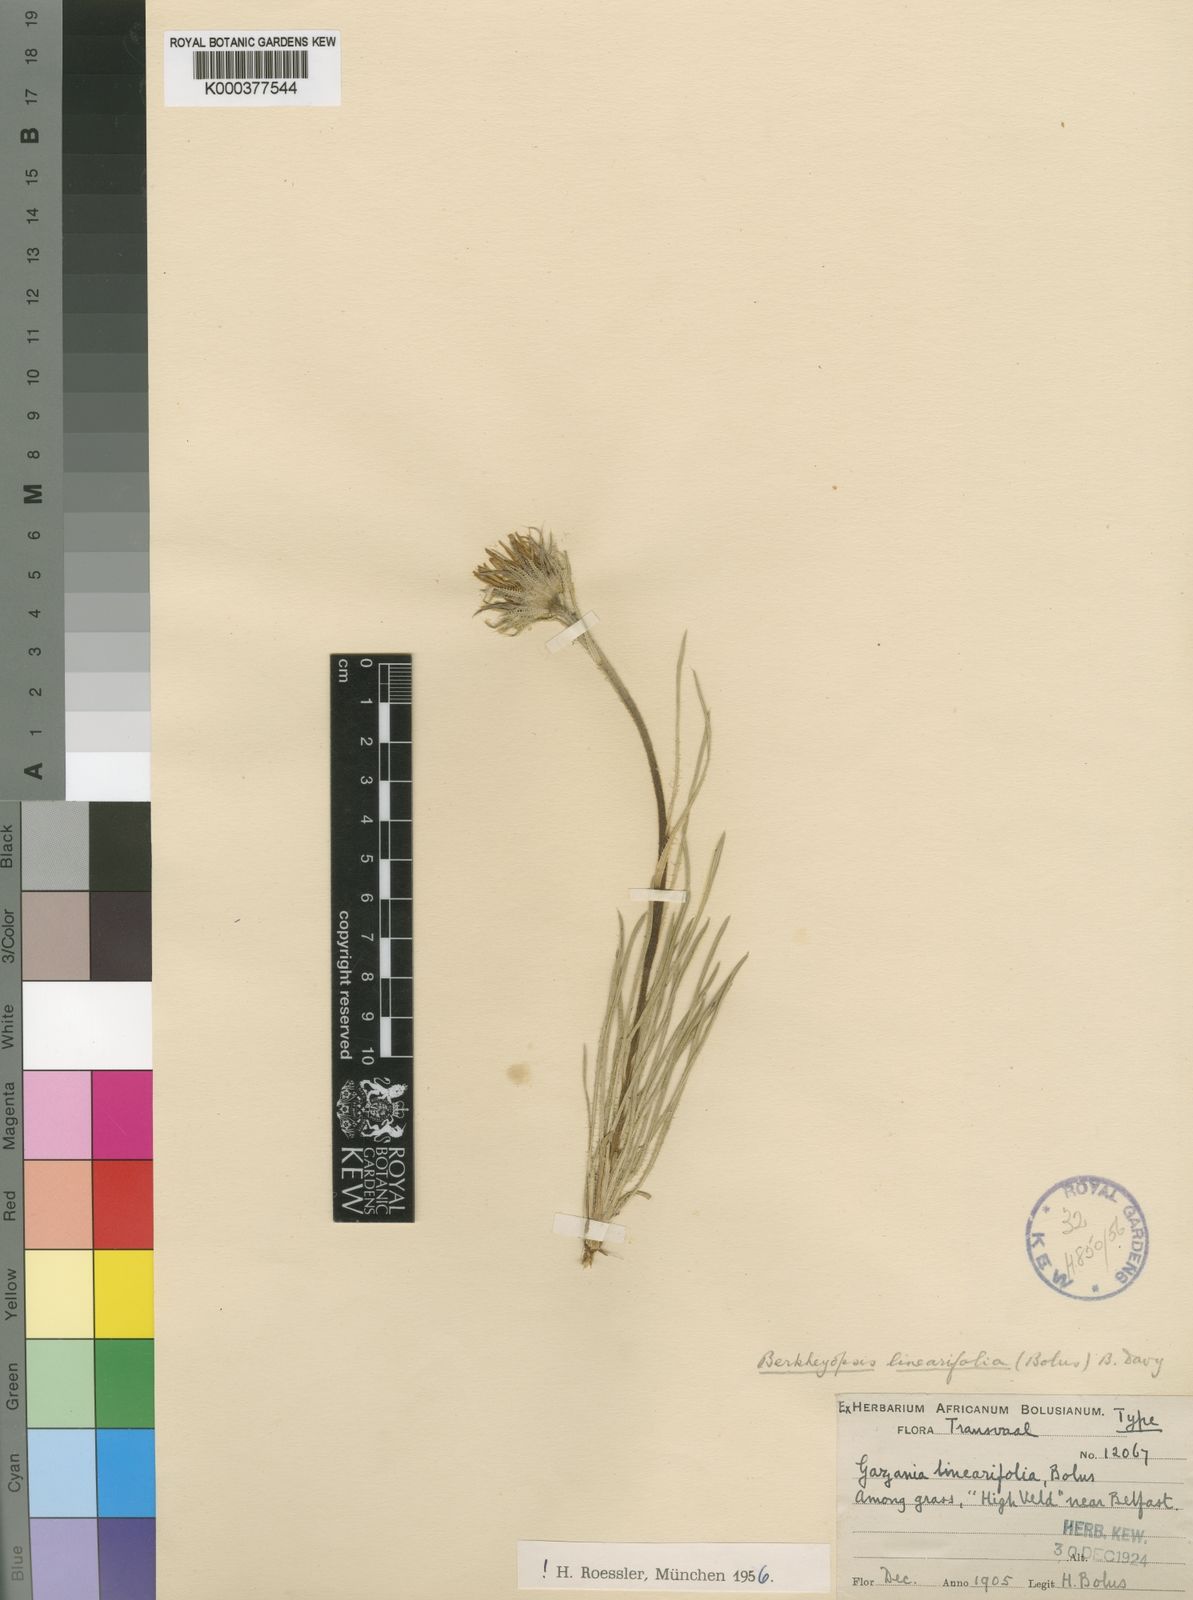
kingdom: Plantae
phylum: Tracheophyta
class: Magnoliopsida
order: Asterales
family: Asteraceae
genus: Roessleria
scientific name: Roessleria linearifolia
